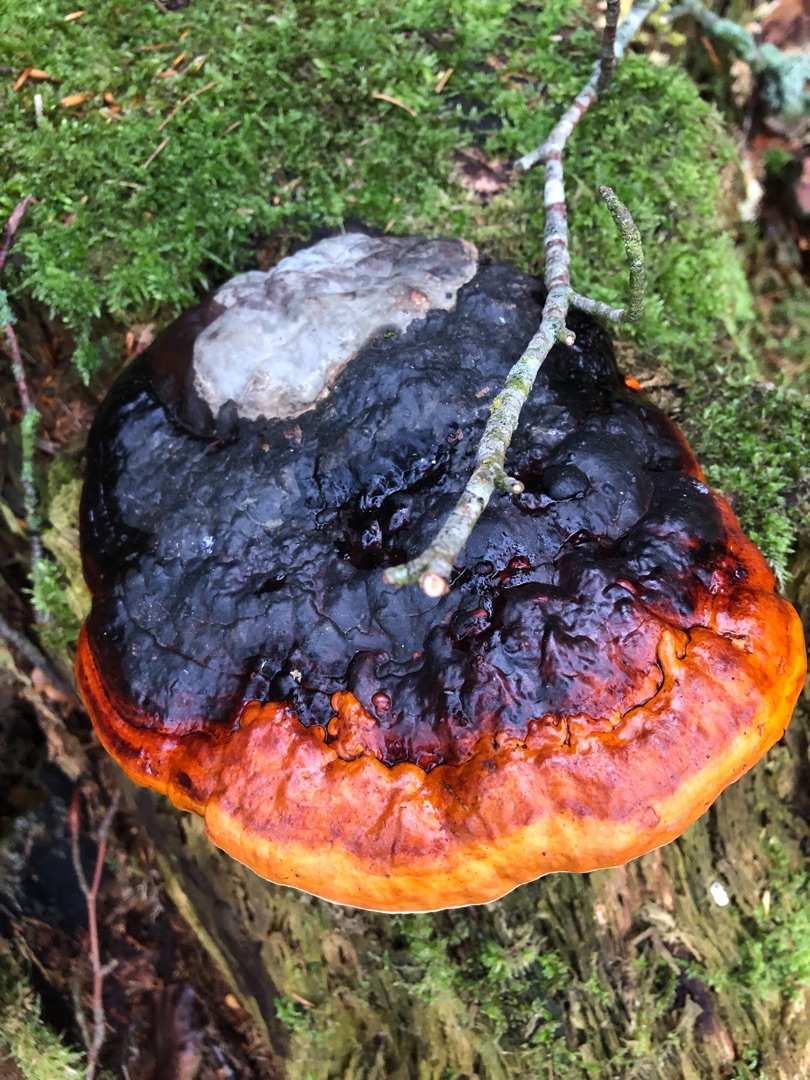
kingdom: Fungi
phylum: Basidiomycota
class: Agaricomycetes
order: Polyporales
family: Fomitopsidaceae
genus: Fomitopsis
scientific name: Fomitopsis pinicola
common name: Randbæltet hovporesvamp
